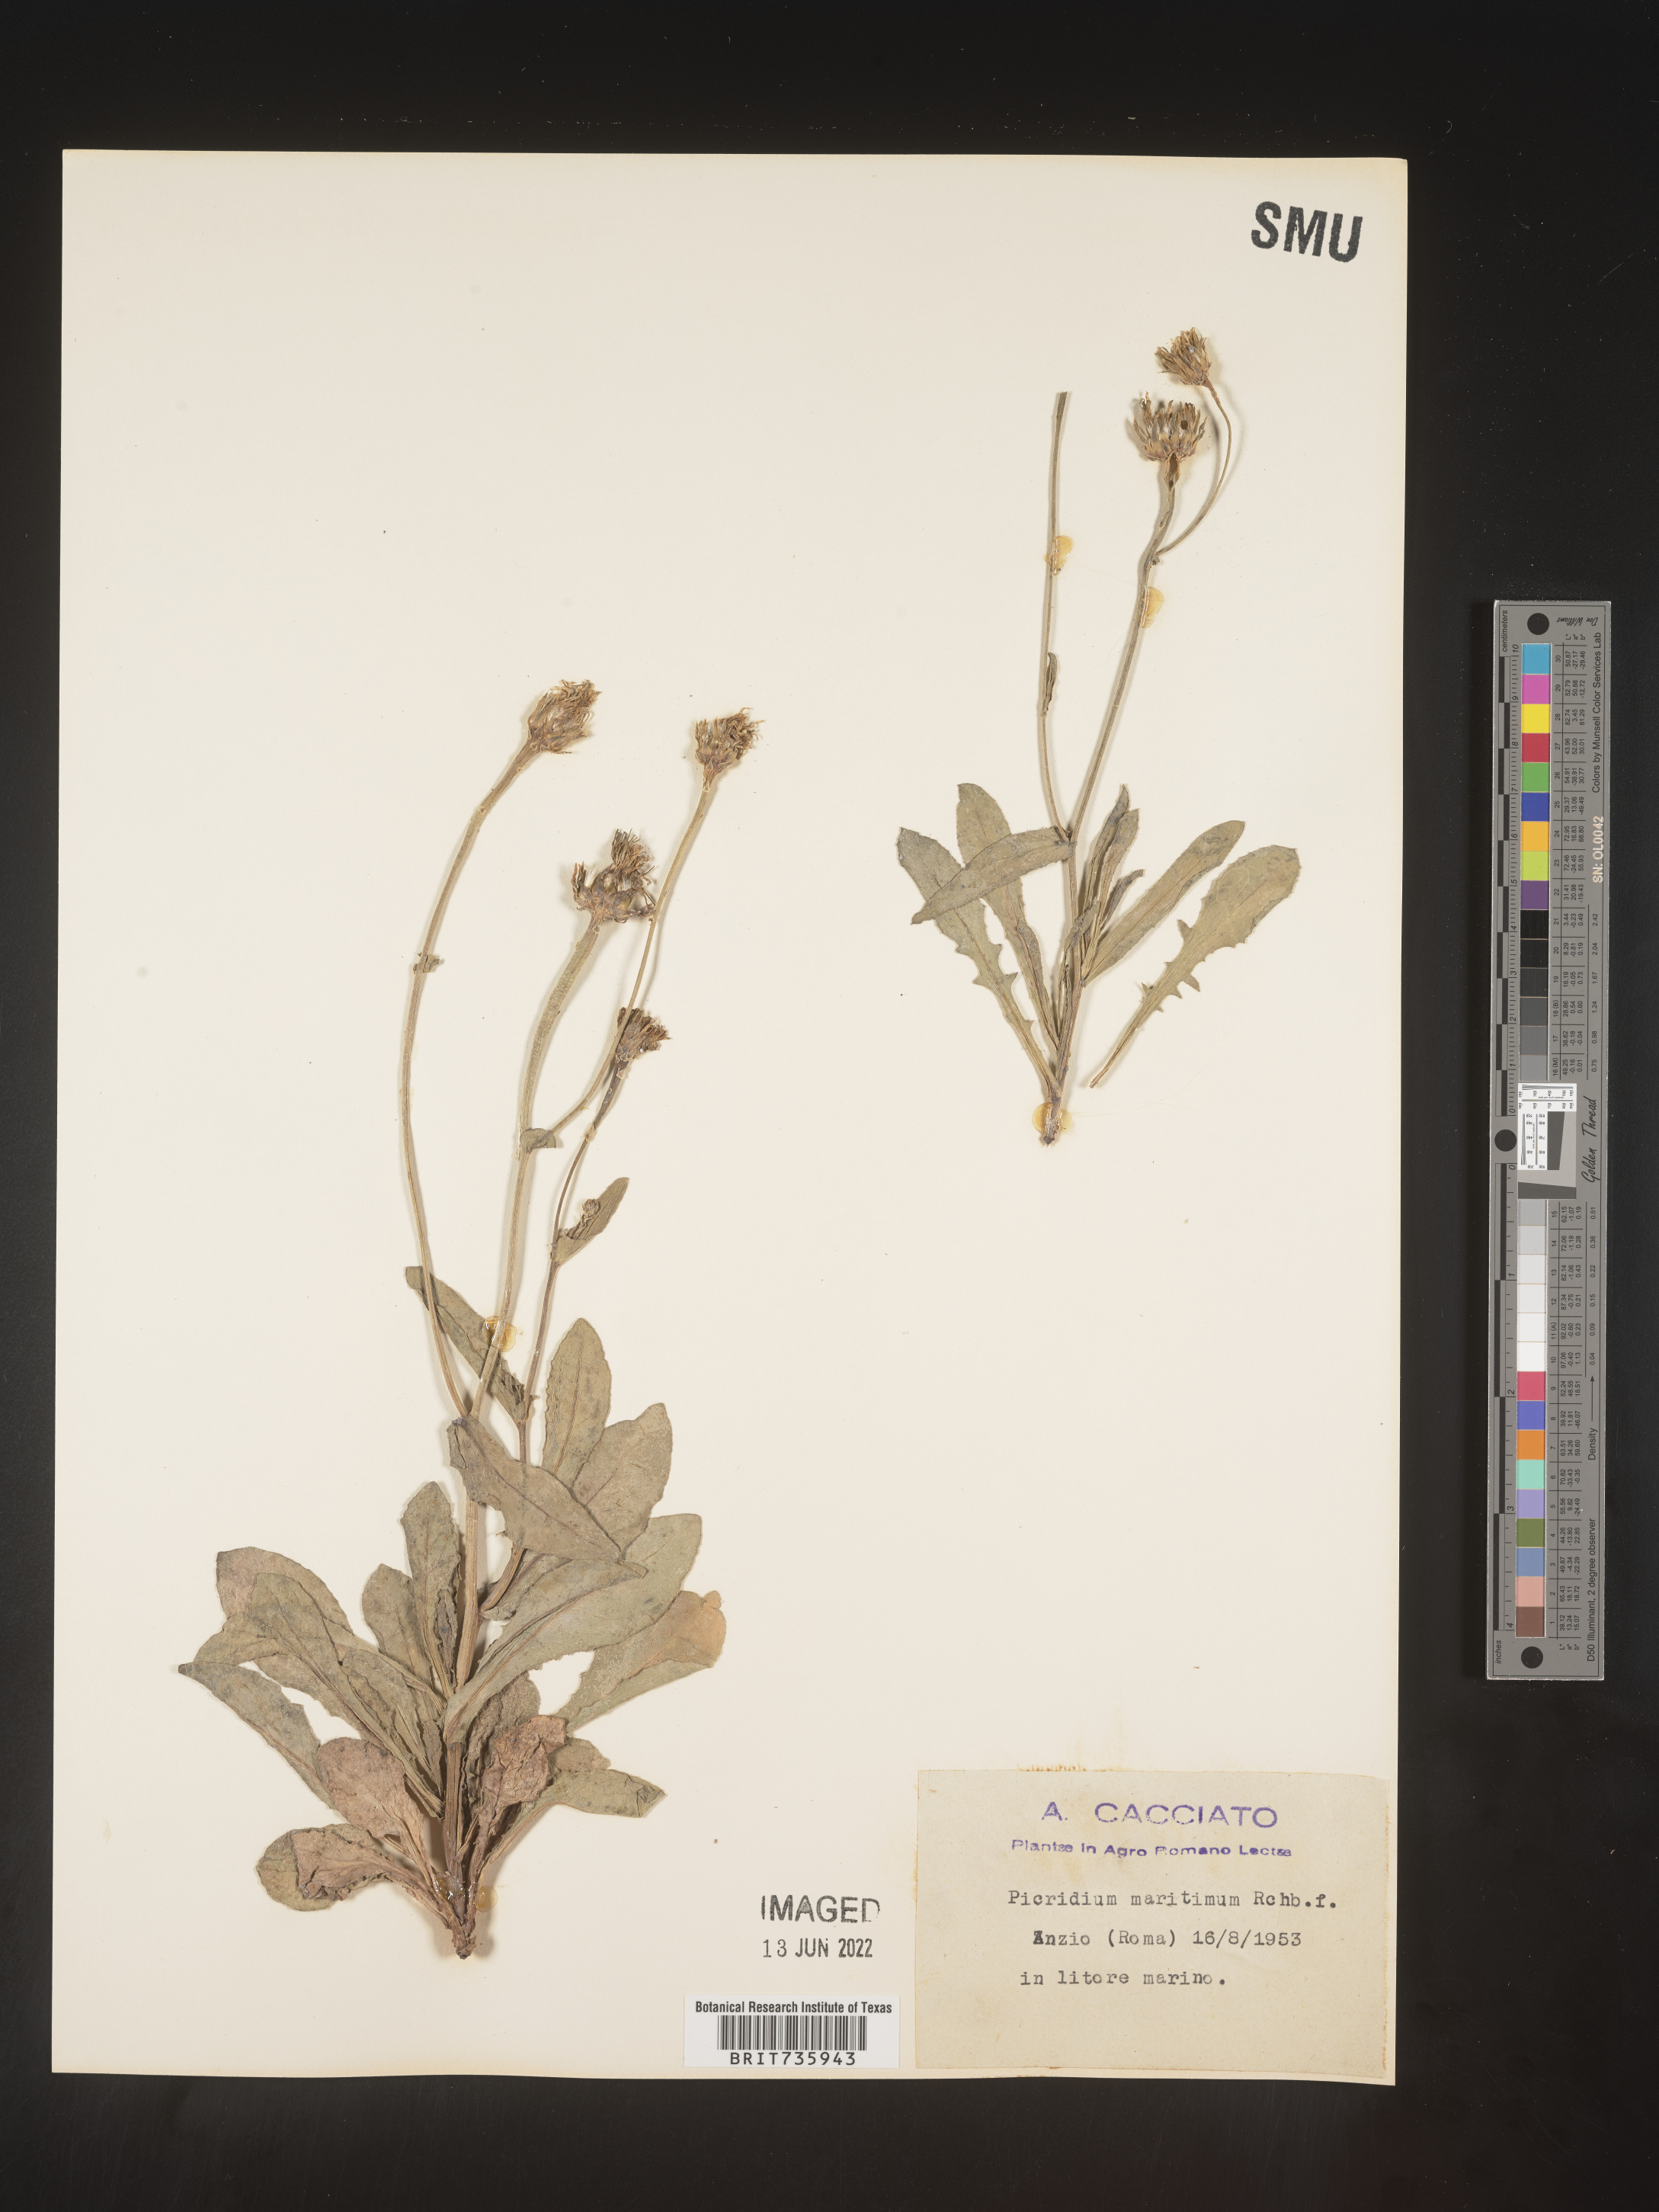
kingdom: Plantae
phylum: Tracheophyta
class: Magnoliopsida
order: Asterales
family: Asteraceae
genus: Reichardia
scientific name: Reichardia
